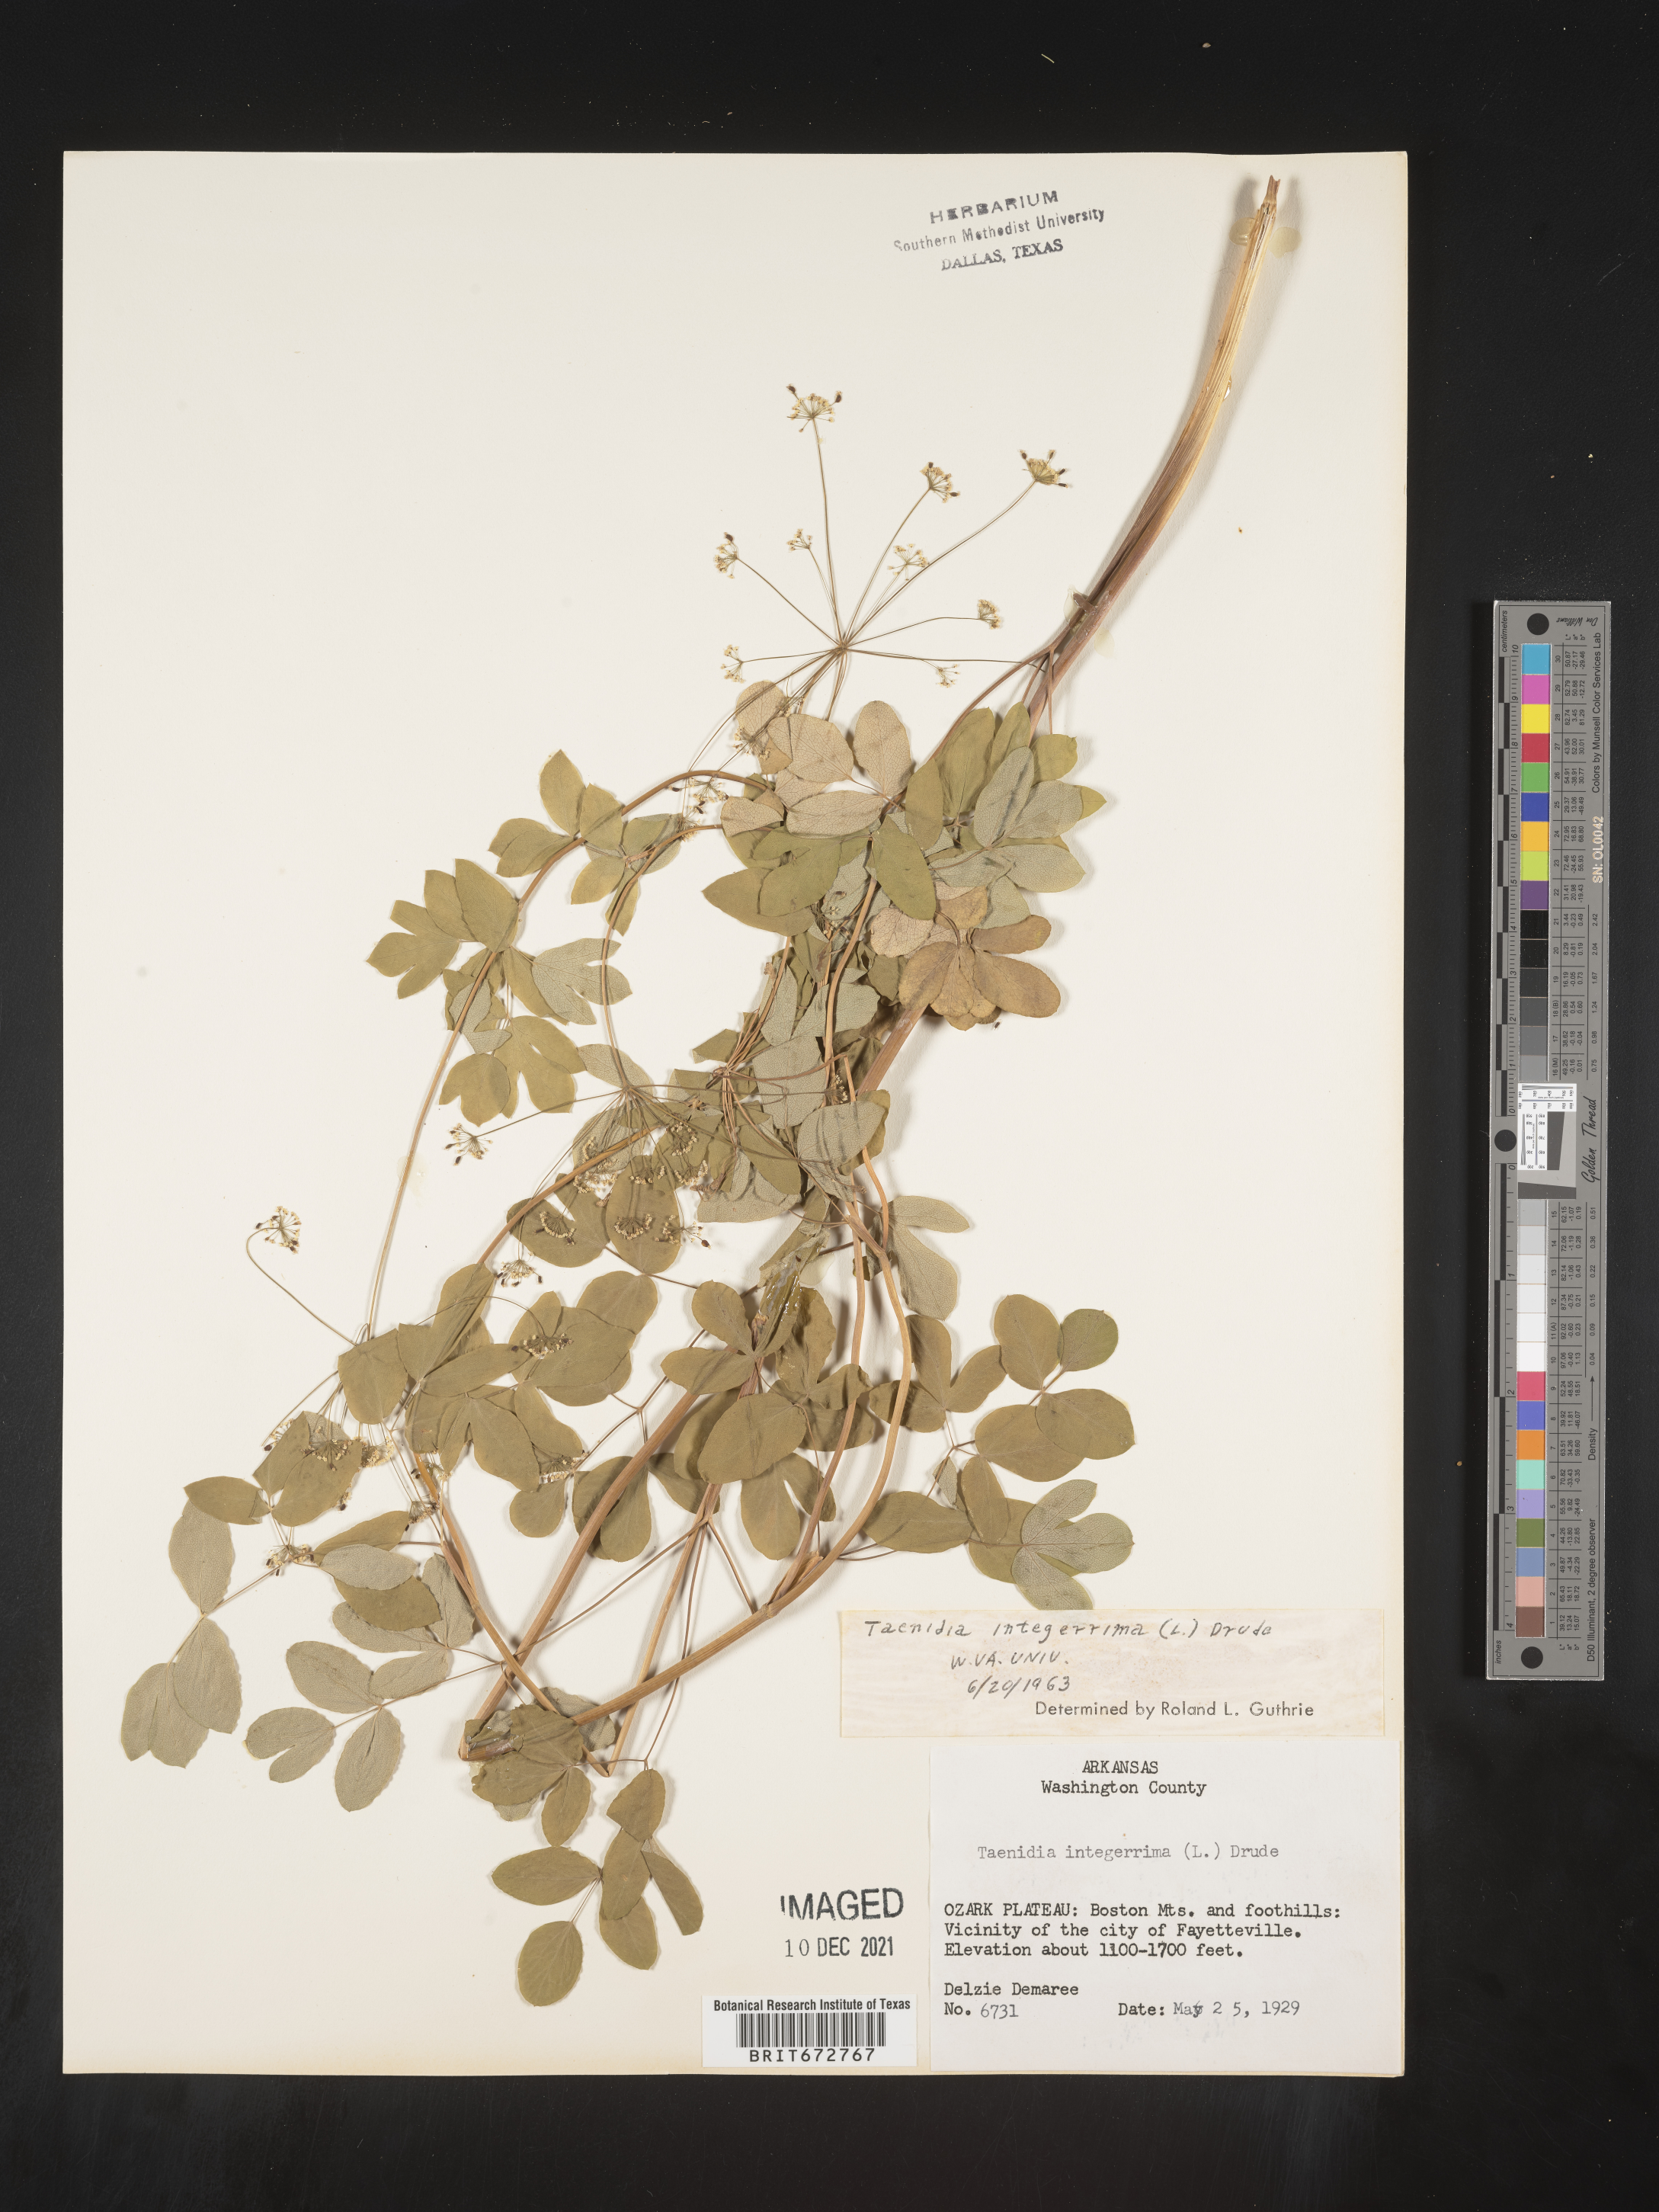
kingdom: Plantae
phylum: Tracheophyta
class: Magnoliopsida
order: Apiales
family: Apiaceae
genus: Taenidia
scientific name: Taenidia integerrima
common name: Golden alexander
